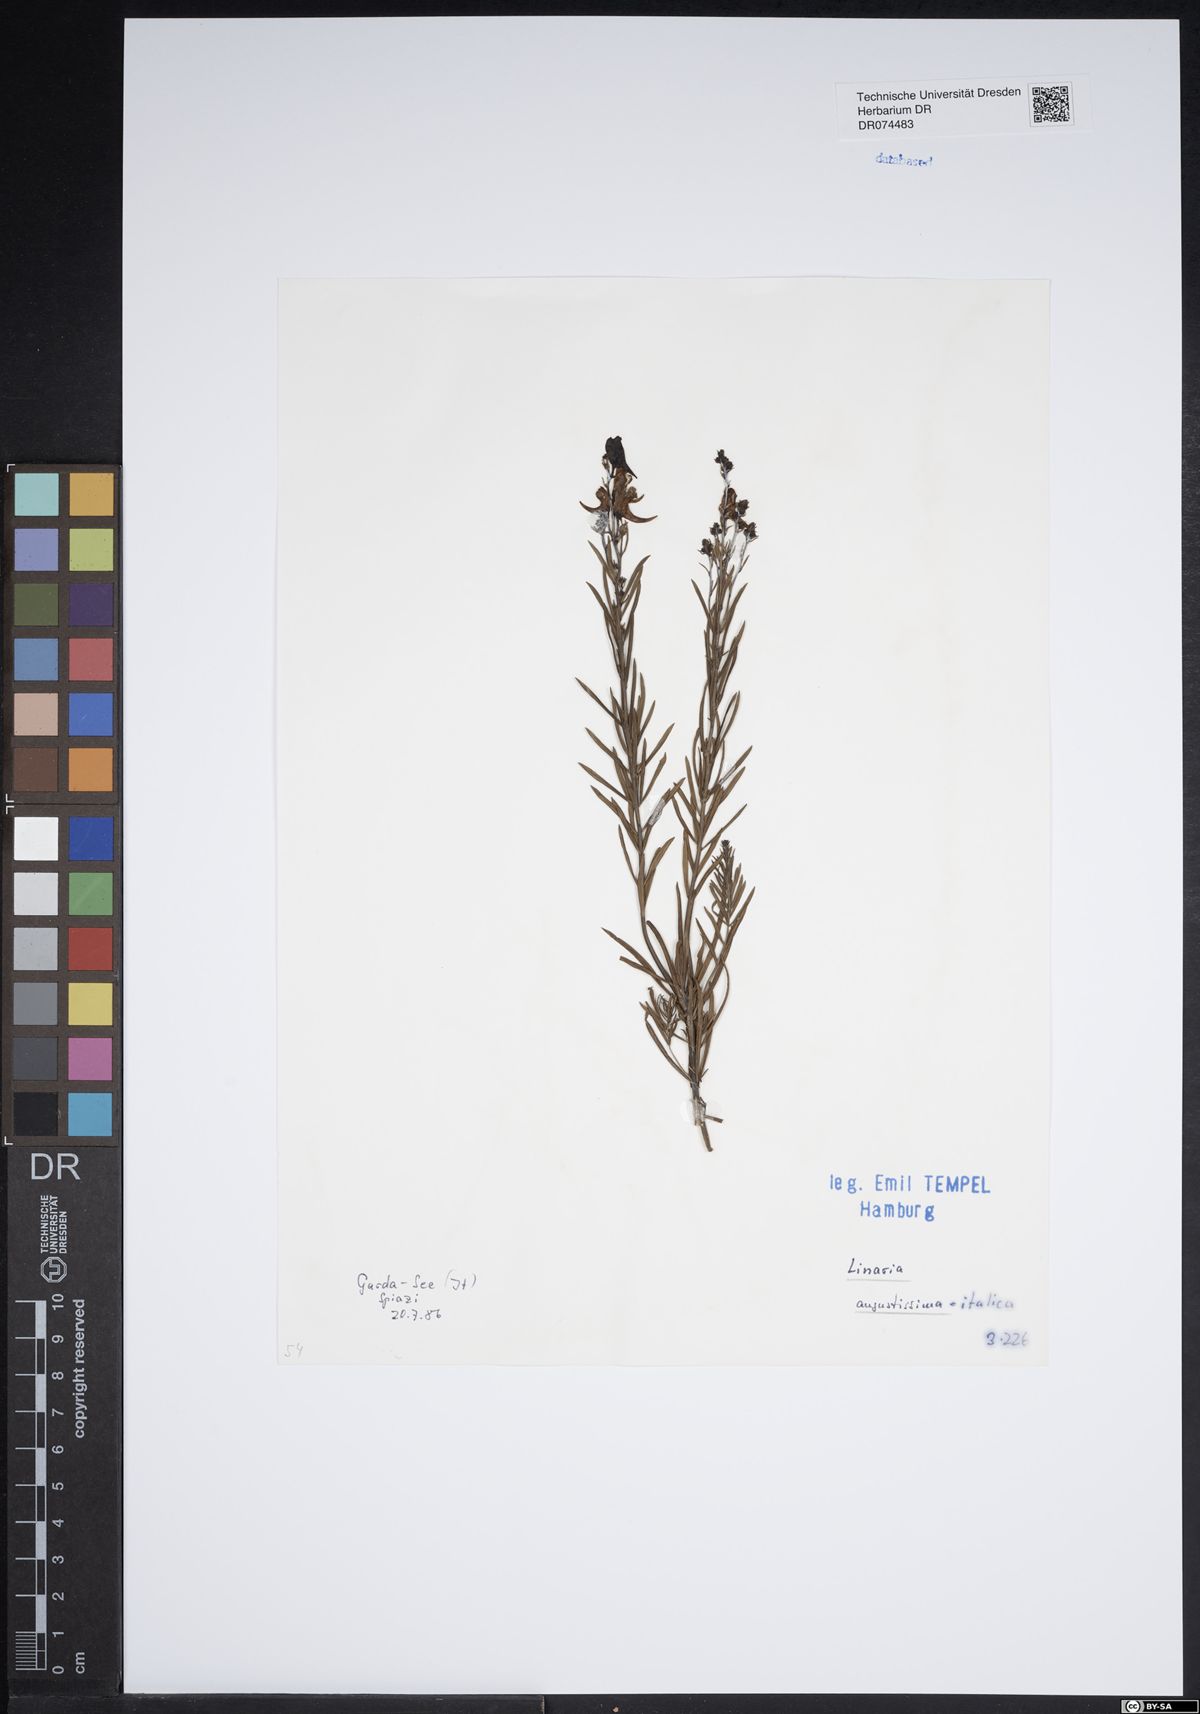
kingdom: Plantae
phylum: Tracheophyta
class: Magnoliopsida
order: Lamiales
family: Plantaginaceae
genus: Linaria
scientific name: Linaria angustissima
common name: Italian toadflax
